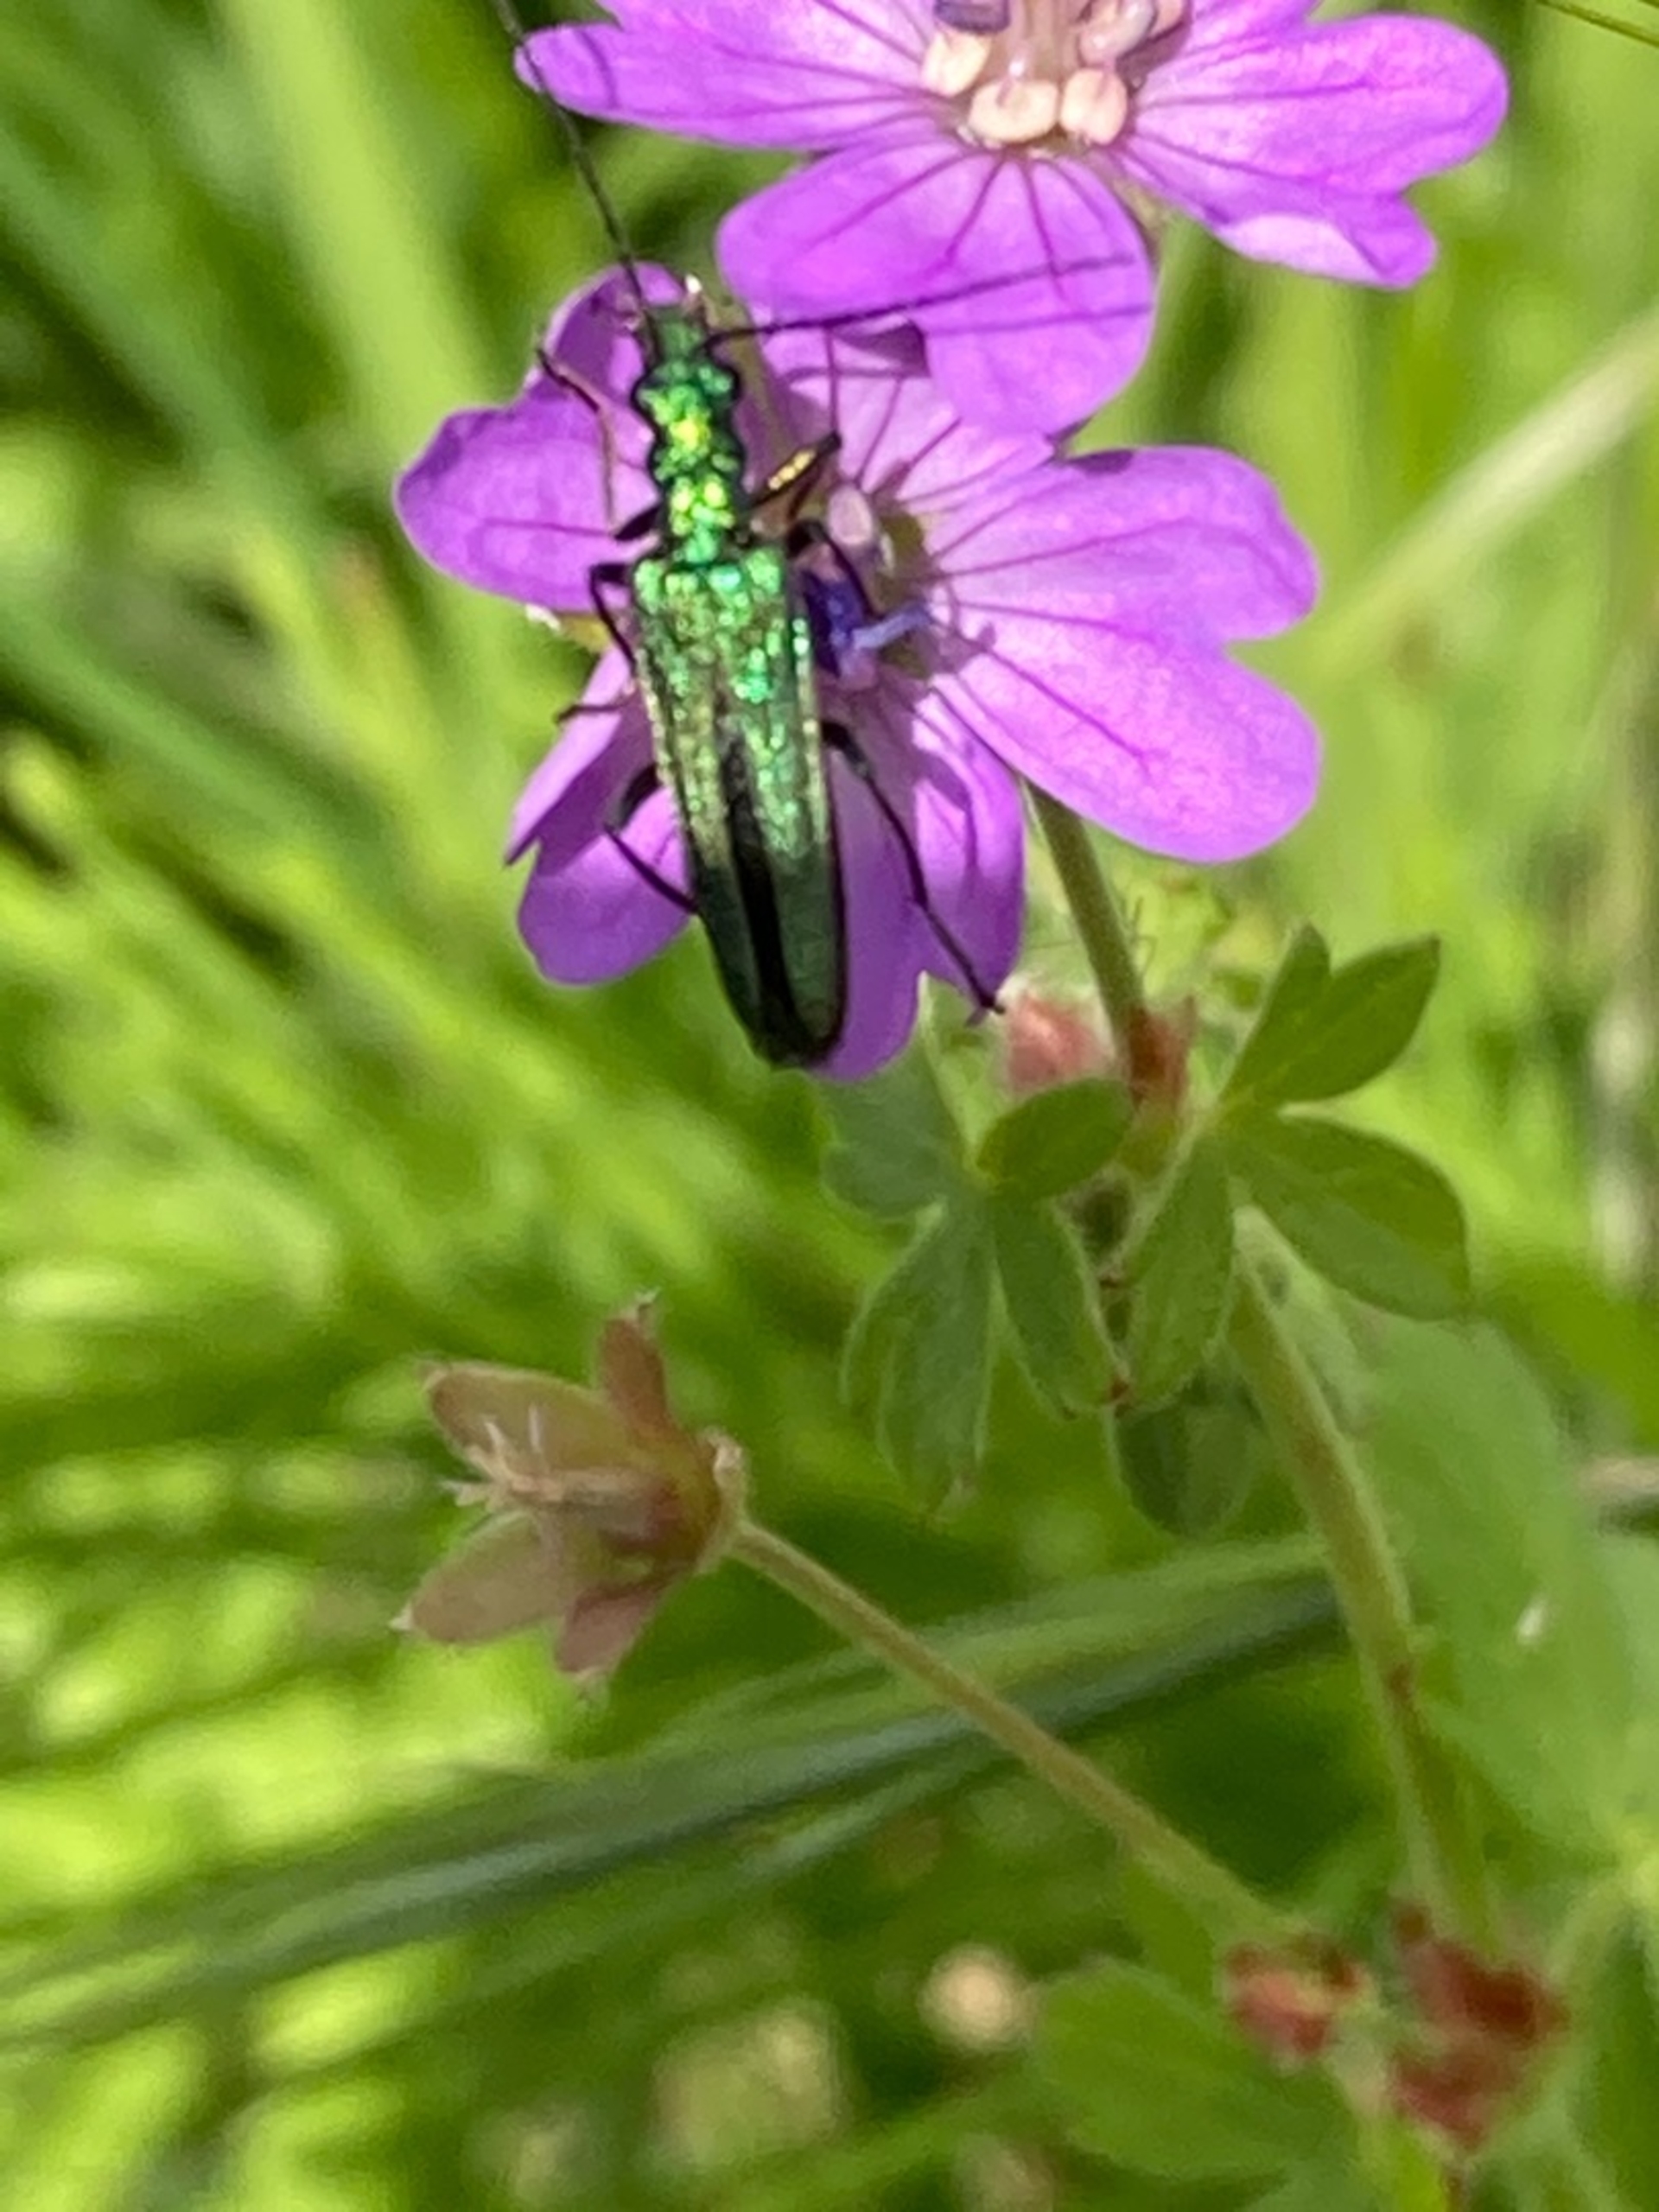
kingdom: Animalia
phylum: Arthropoda
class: Insecta
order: Coleoptera
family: Oedemeridae
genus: Oedemera
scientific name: Oedemera nobilis
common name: Tyklårssolbille
